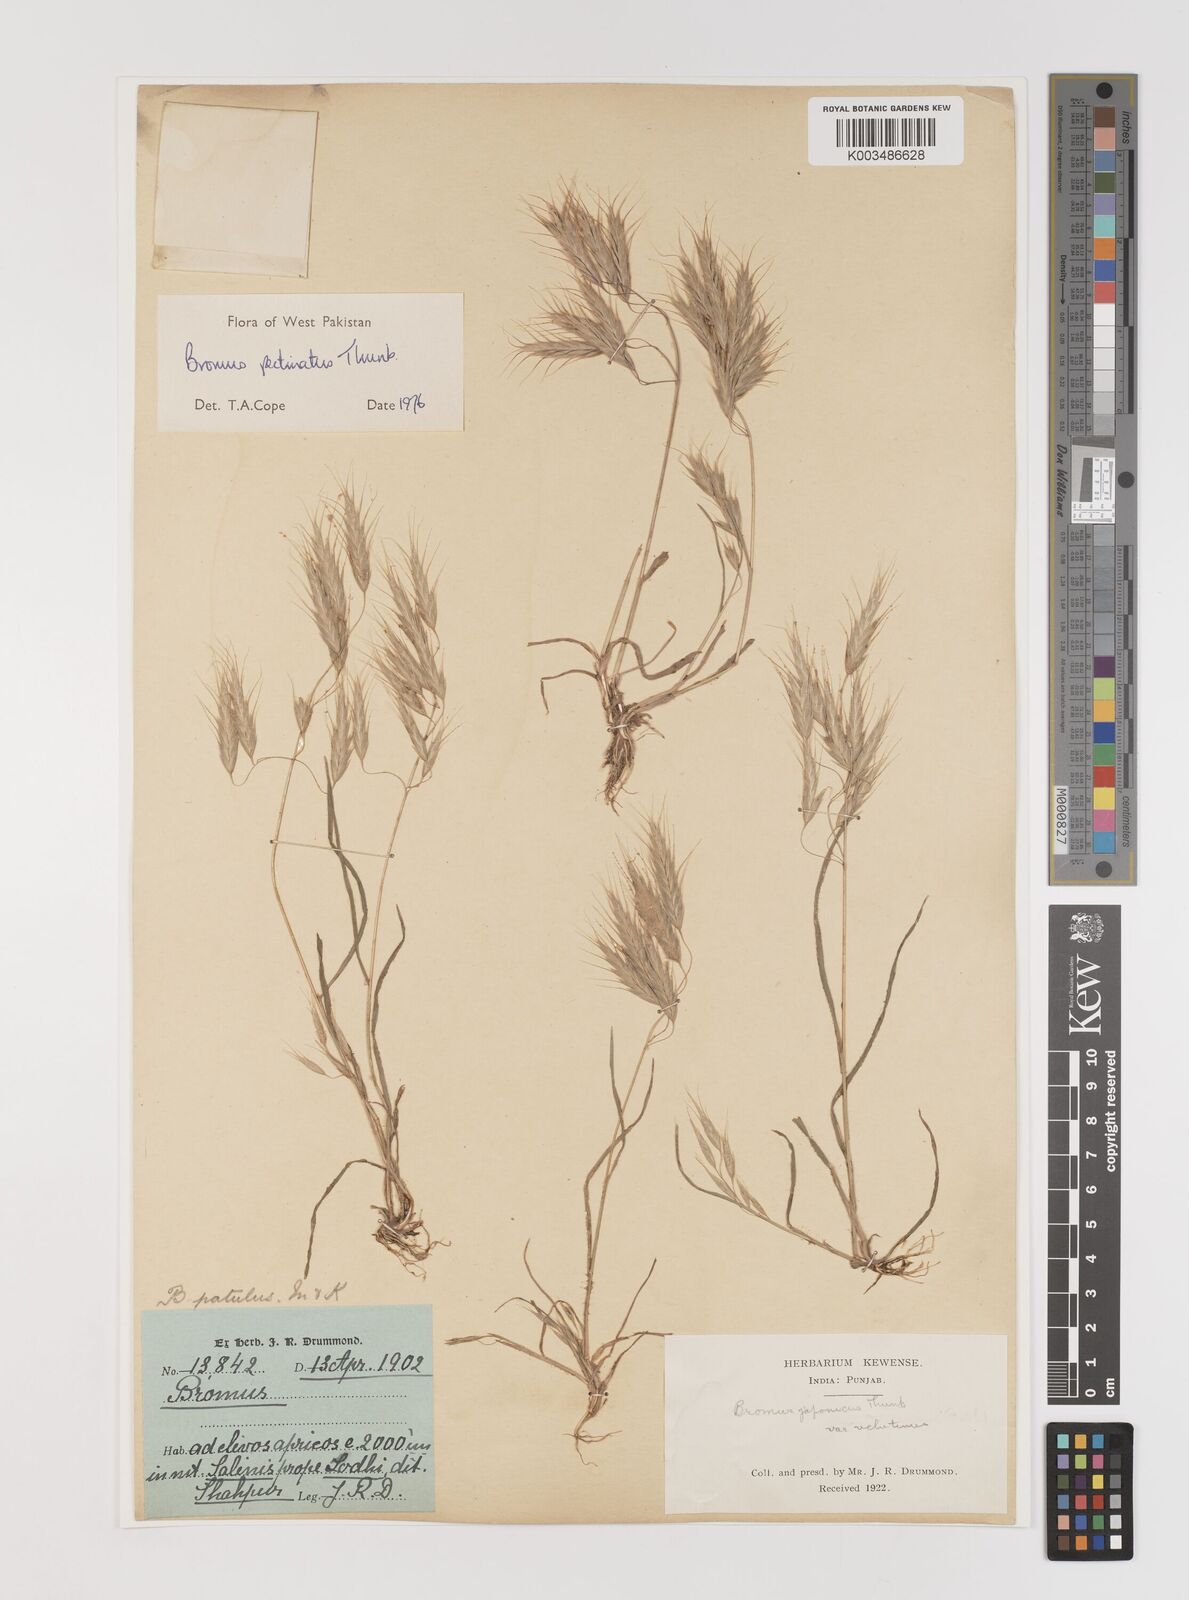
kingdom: Plantae
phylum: Tracheophyta
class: Liliopsida
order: Poales
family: Poaceae
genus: Bromus
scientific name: Bromus pectinatus
